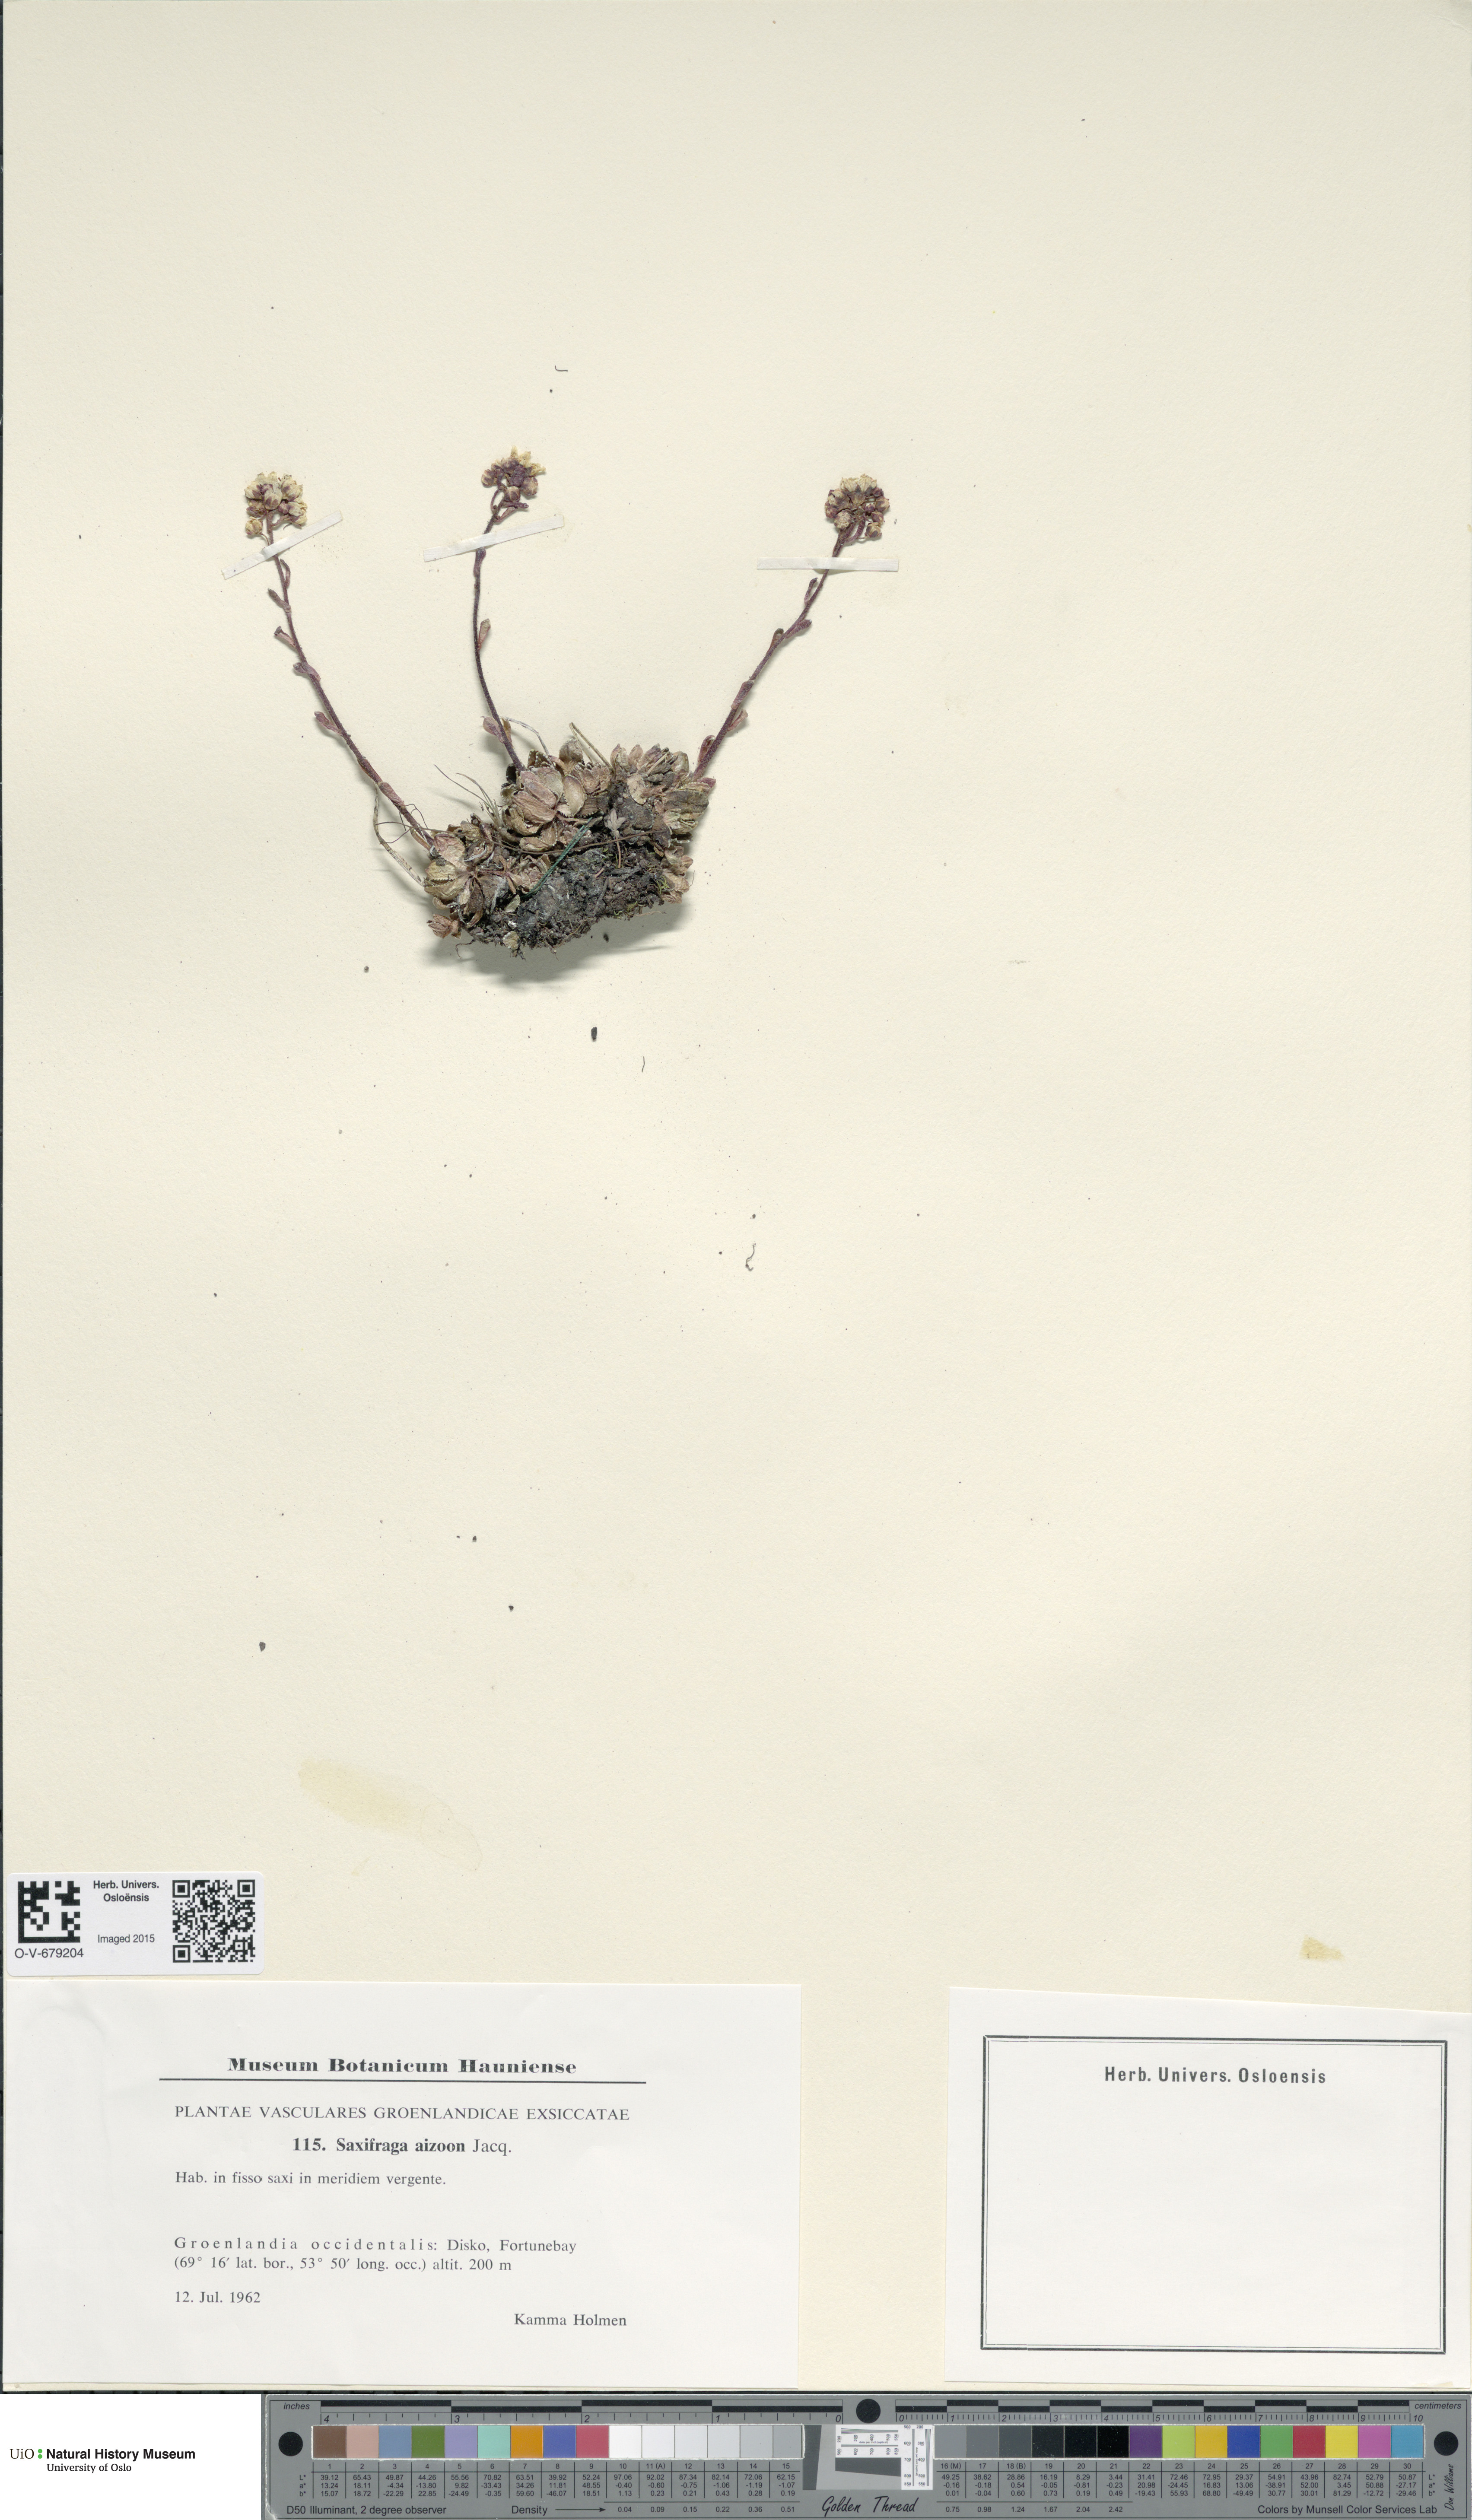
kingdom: Plantae
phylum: Tracheophyta
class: Magnoliopsida
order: Saxifragales
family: Saxifragaceae
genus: Saxifraga
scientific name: Saxifraga paniculata
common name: Livelong saxifrage
